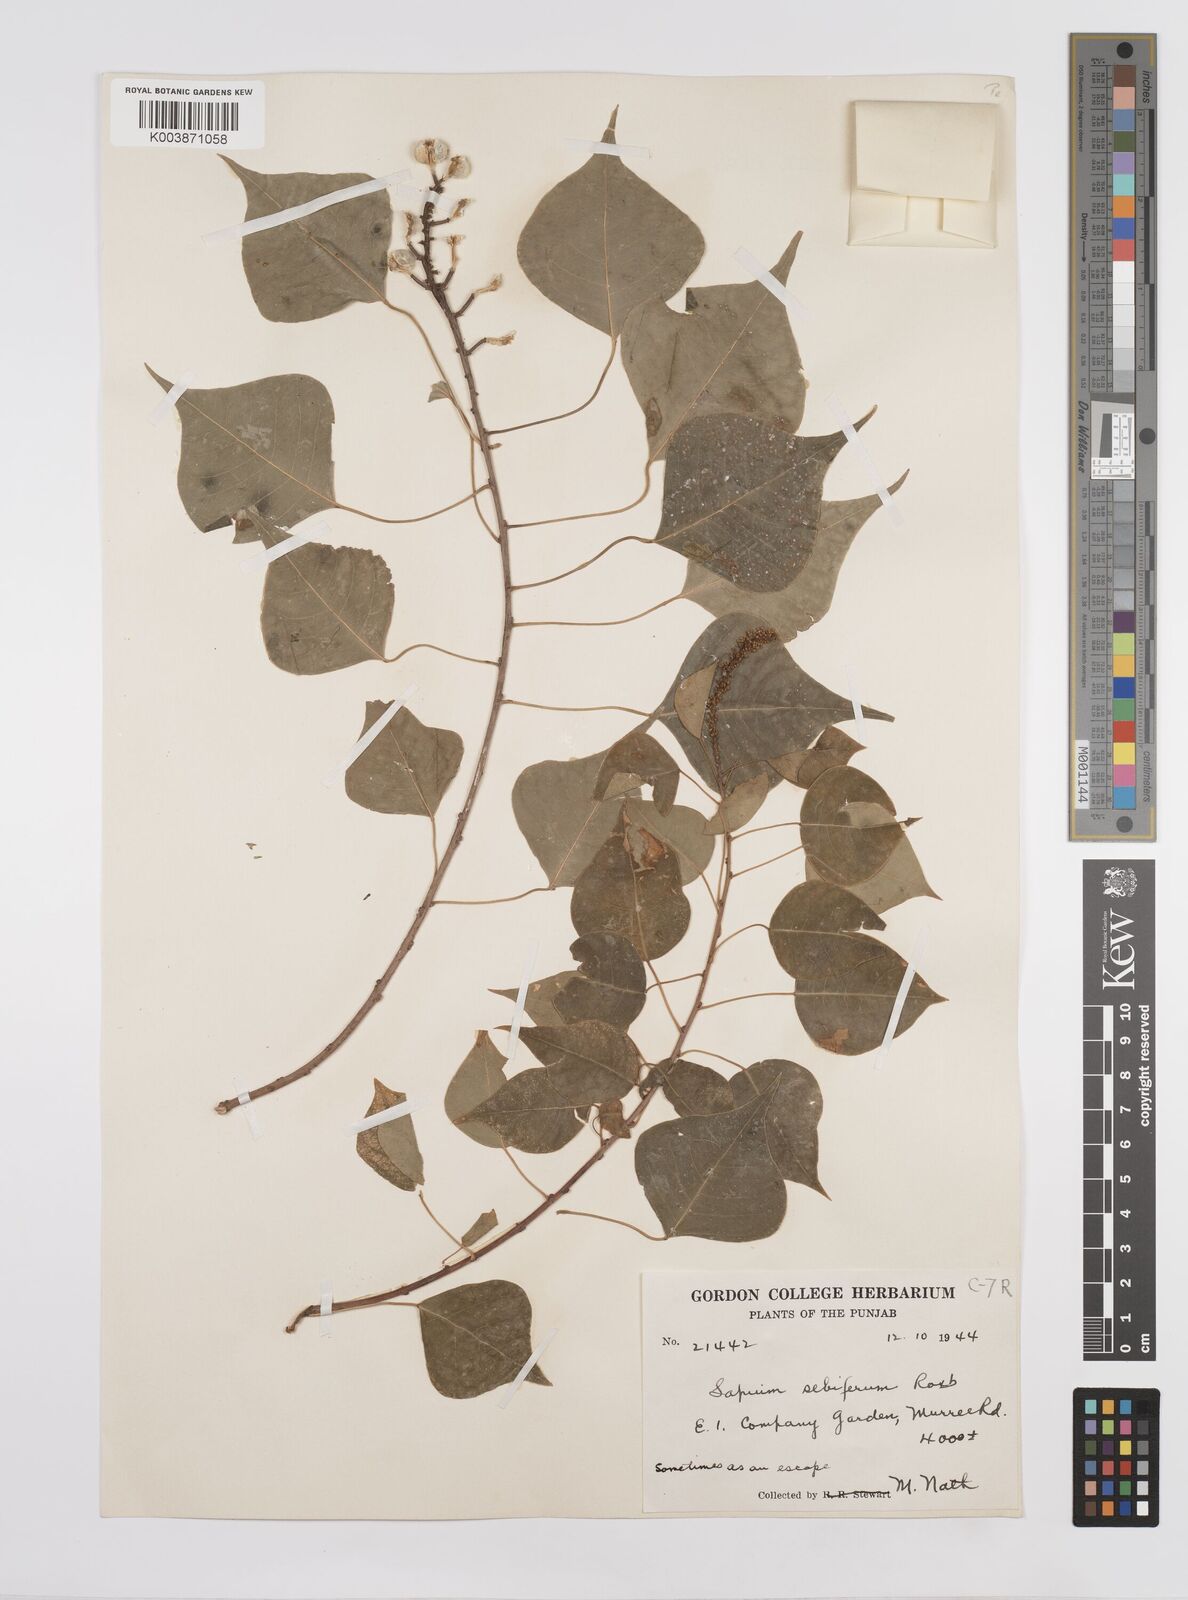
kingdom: Plantae
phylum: Tracheophyta
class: Magnoliopsida
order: Malpighiales
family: Euphorbiaceae
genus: Triadica
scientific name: Triadica sebifera
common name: Chinese tallow
